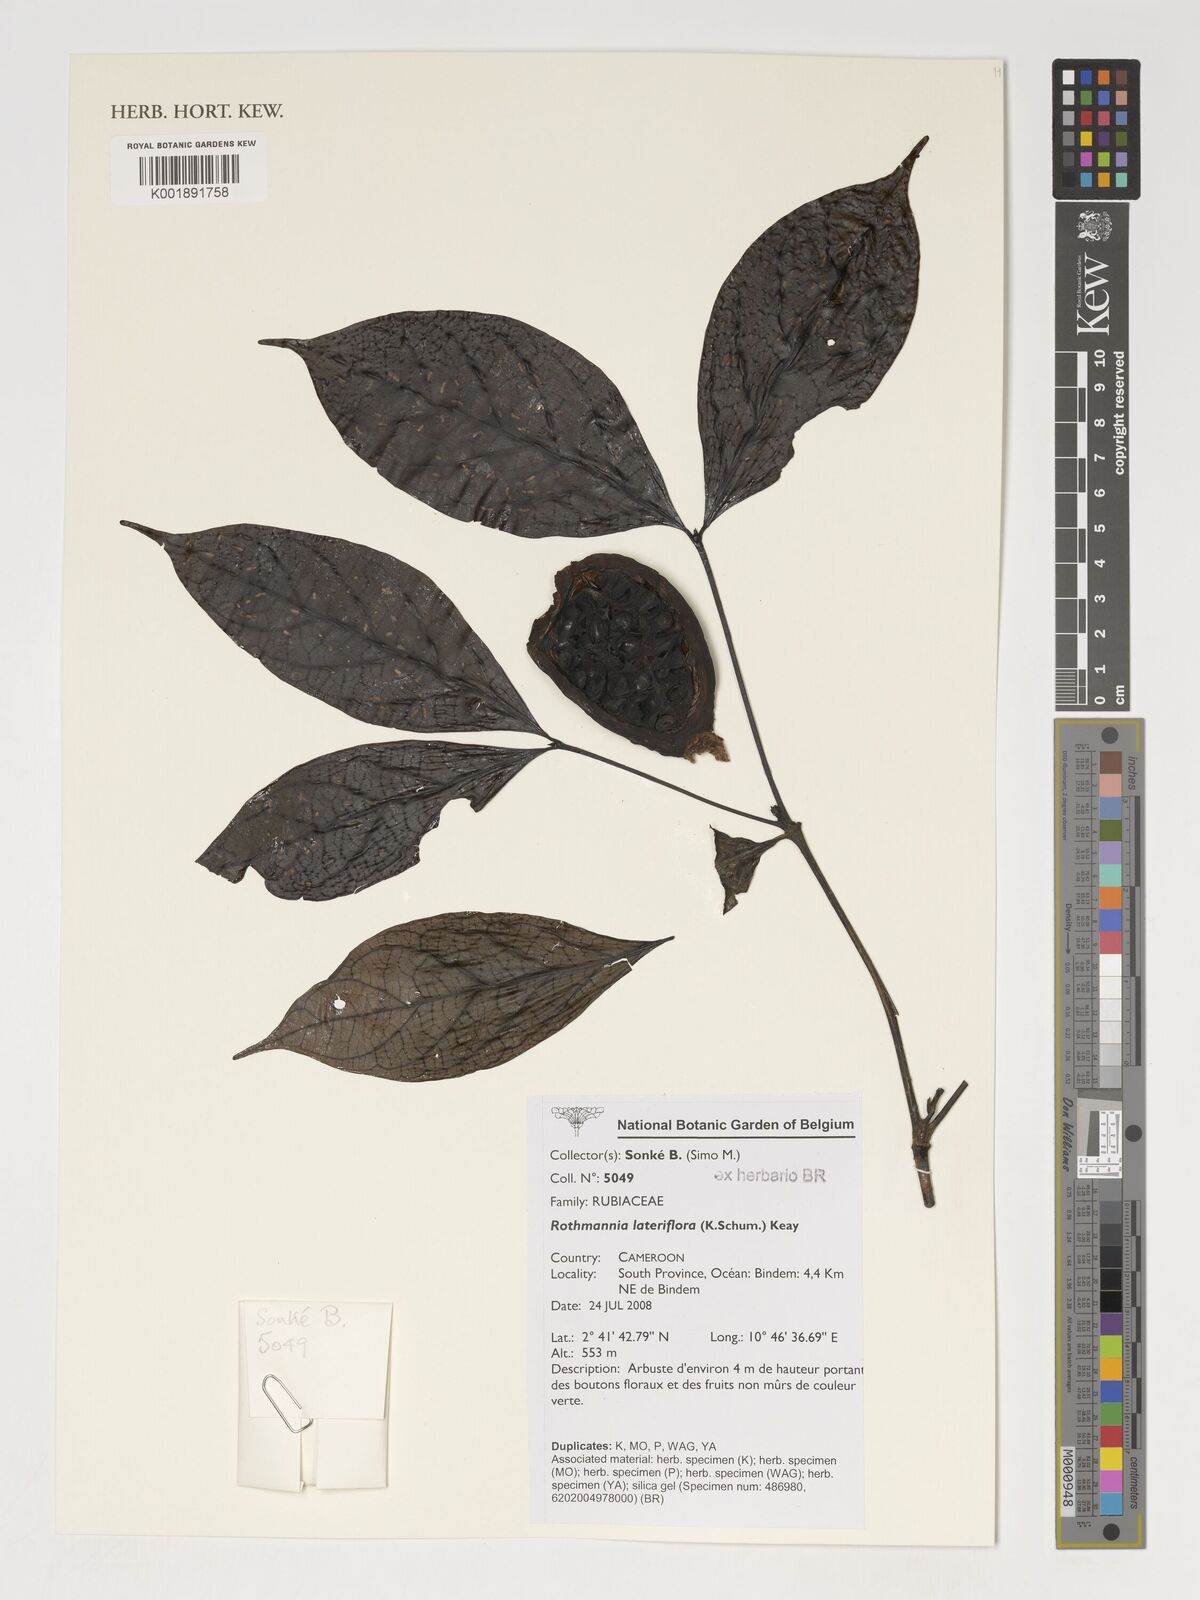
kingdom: Plantae
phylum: Tracheophyta
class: Magnoliopsida
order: Gentianales
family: Rubiaceae
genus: Rothmannia
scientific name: Rothmannia lateriflora
